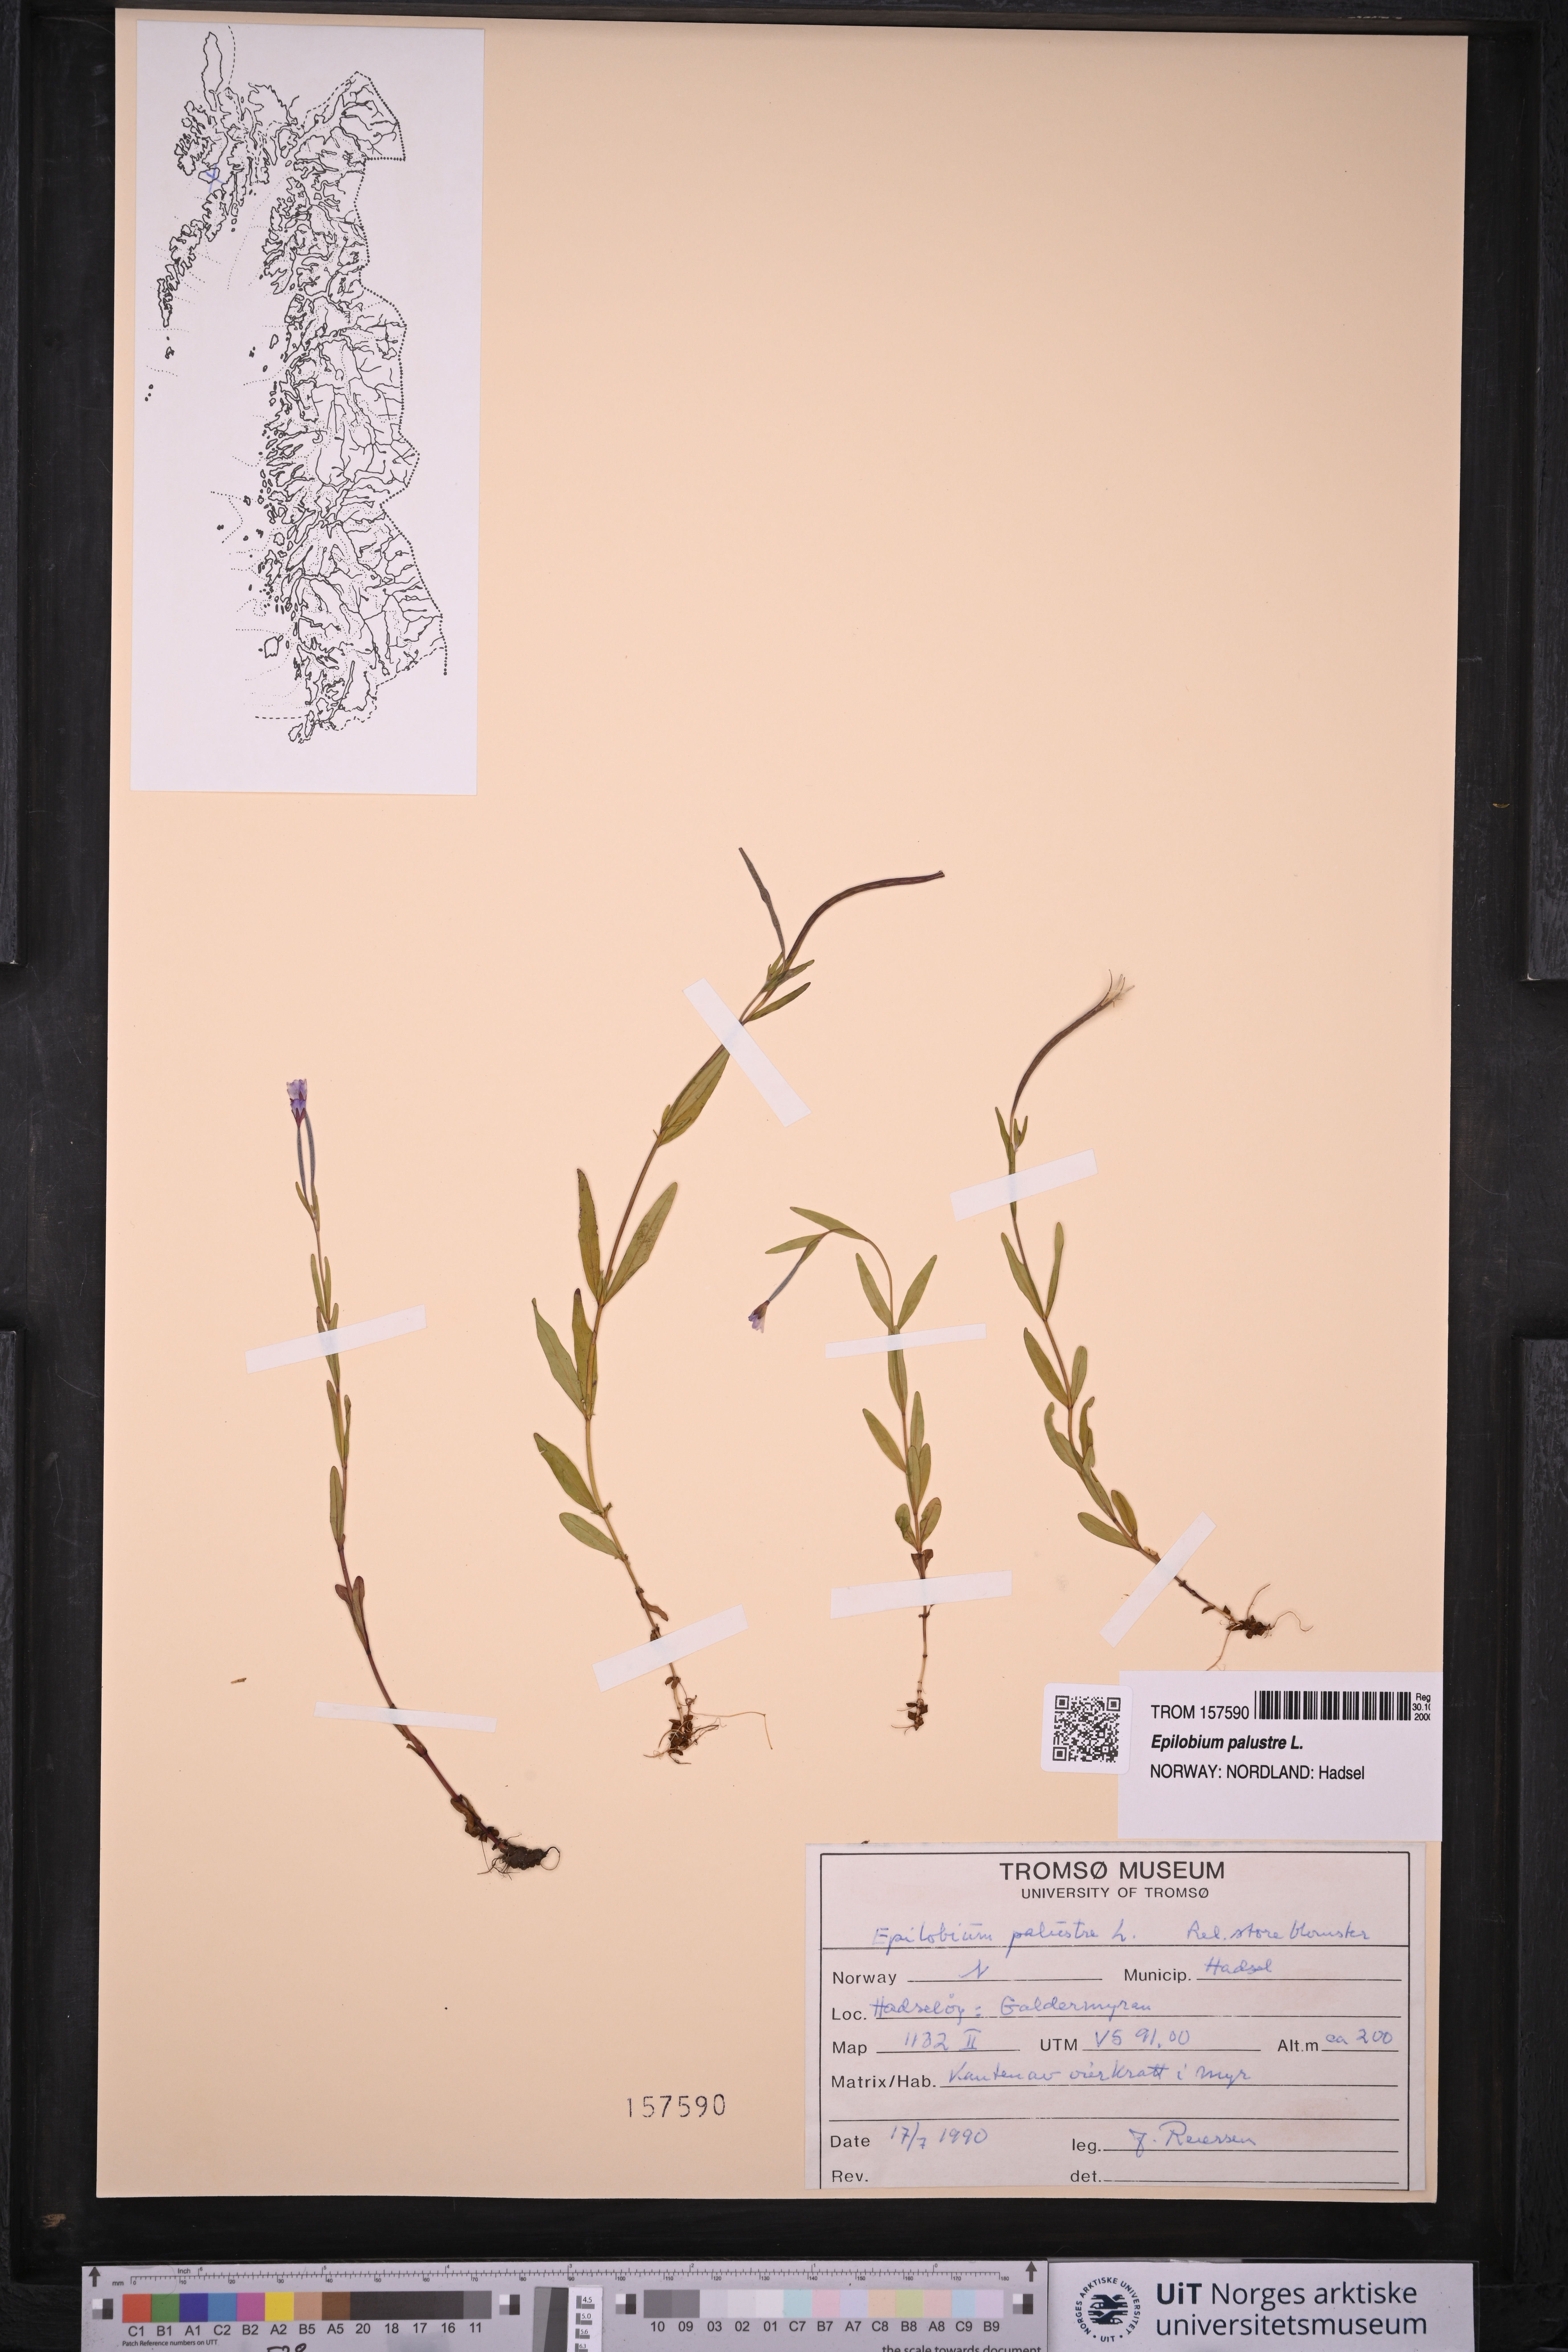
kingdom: Plantae
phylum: Tracheophyta
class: Magnoliopsida
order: Myrtales
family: Onagraceae
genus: Epilobium
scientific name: Epilobium palustre
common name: Marsh willowherb
